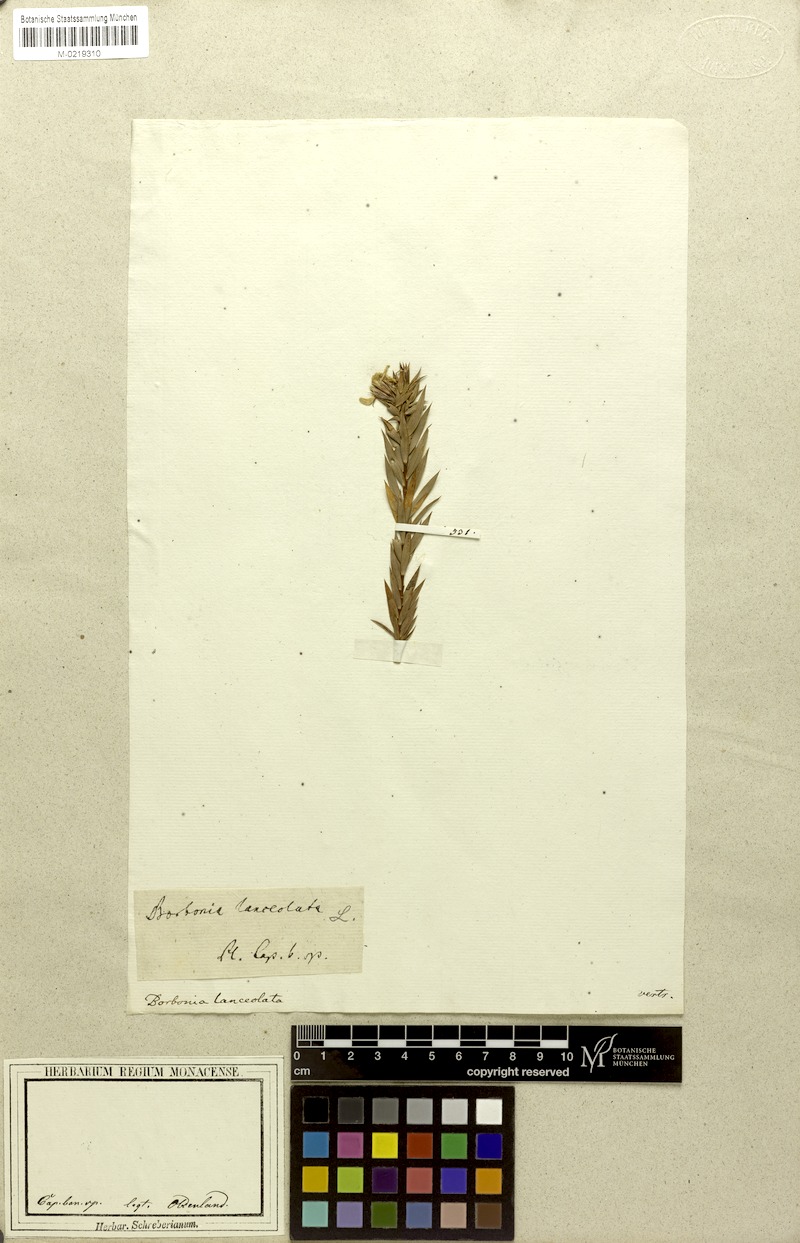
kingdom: Plantae
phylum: Tracheophyta
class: Magnoliopsida
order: Fabales
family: Fabaceae
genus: Aspalathus
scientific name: Aspalathus angustifolia
